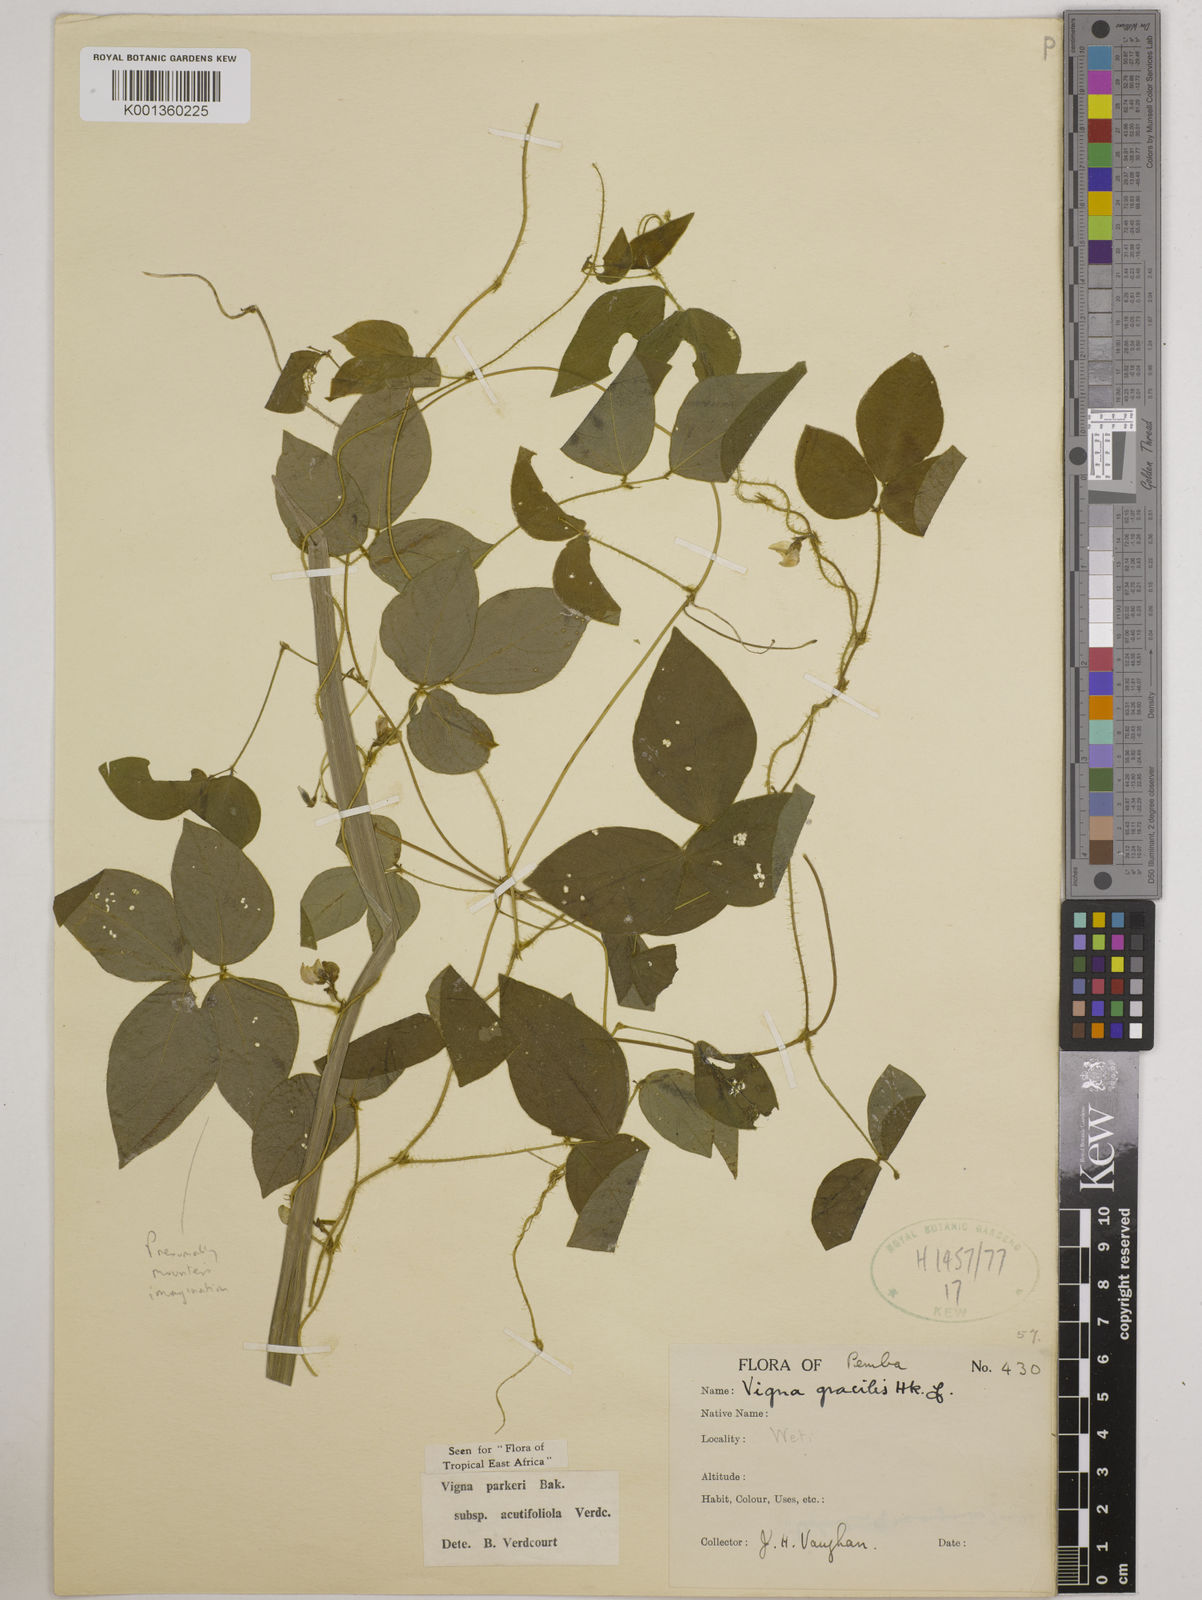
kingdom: Plantae
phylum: Tracheophyta
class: Magnoliopsida
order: Fabales
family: Fabaceae
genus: Vigna
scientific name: Vigna hosei
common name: Sarawak-bean
